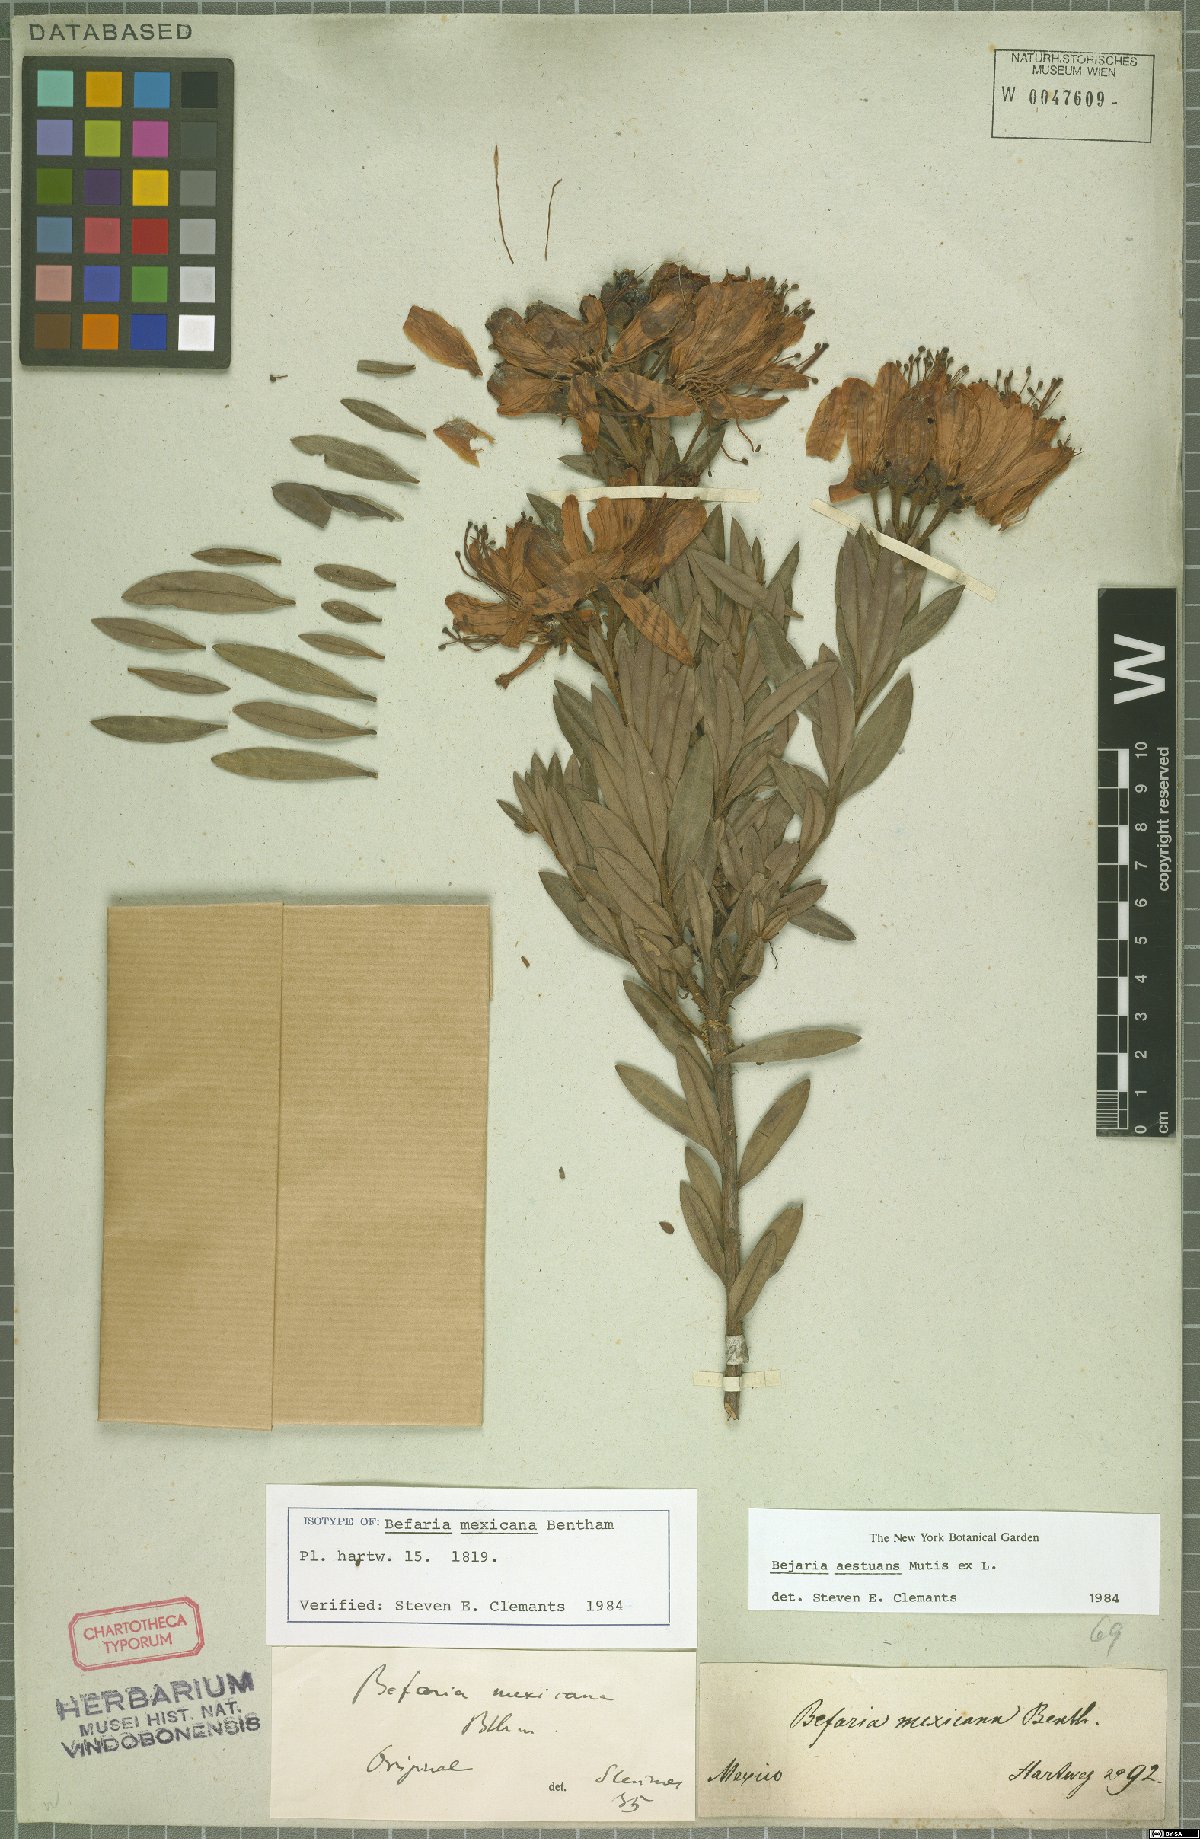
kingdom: Plantae
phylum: Tracheophyta
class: Magnoliopsida
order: Ericales
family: Ericaceae
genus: Bejaria
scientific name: Bejaria aestuans
